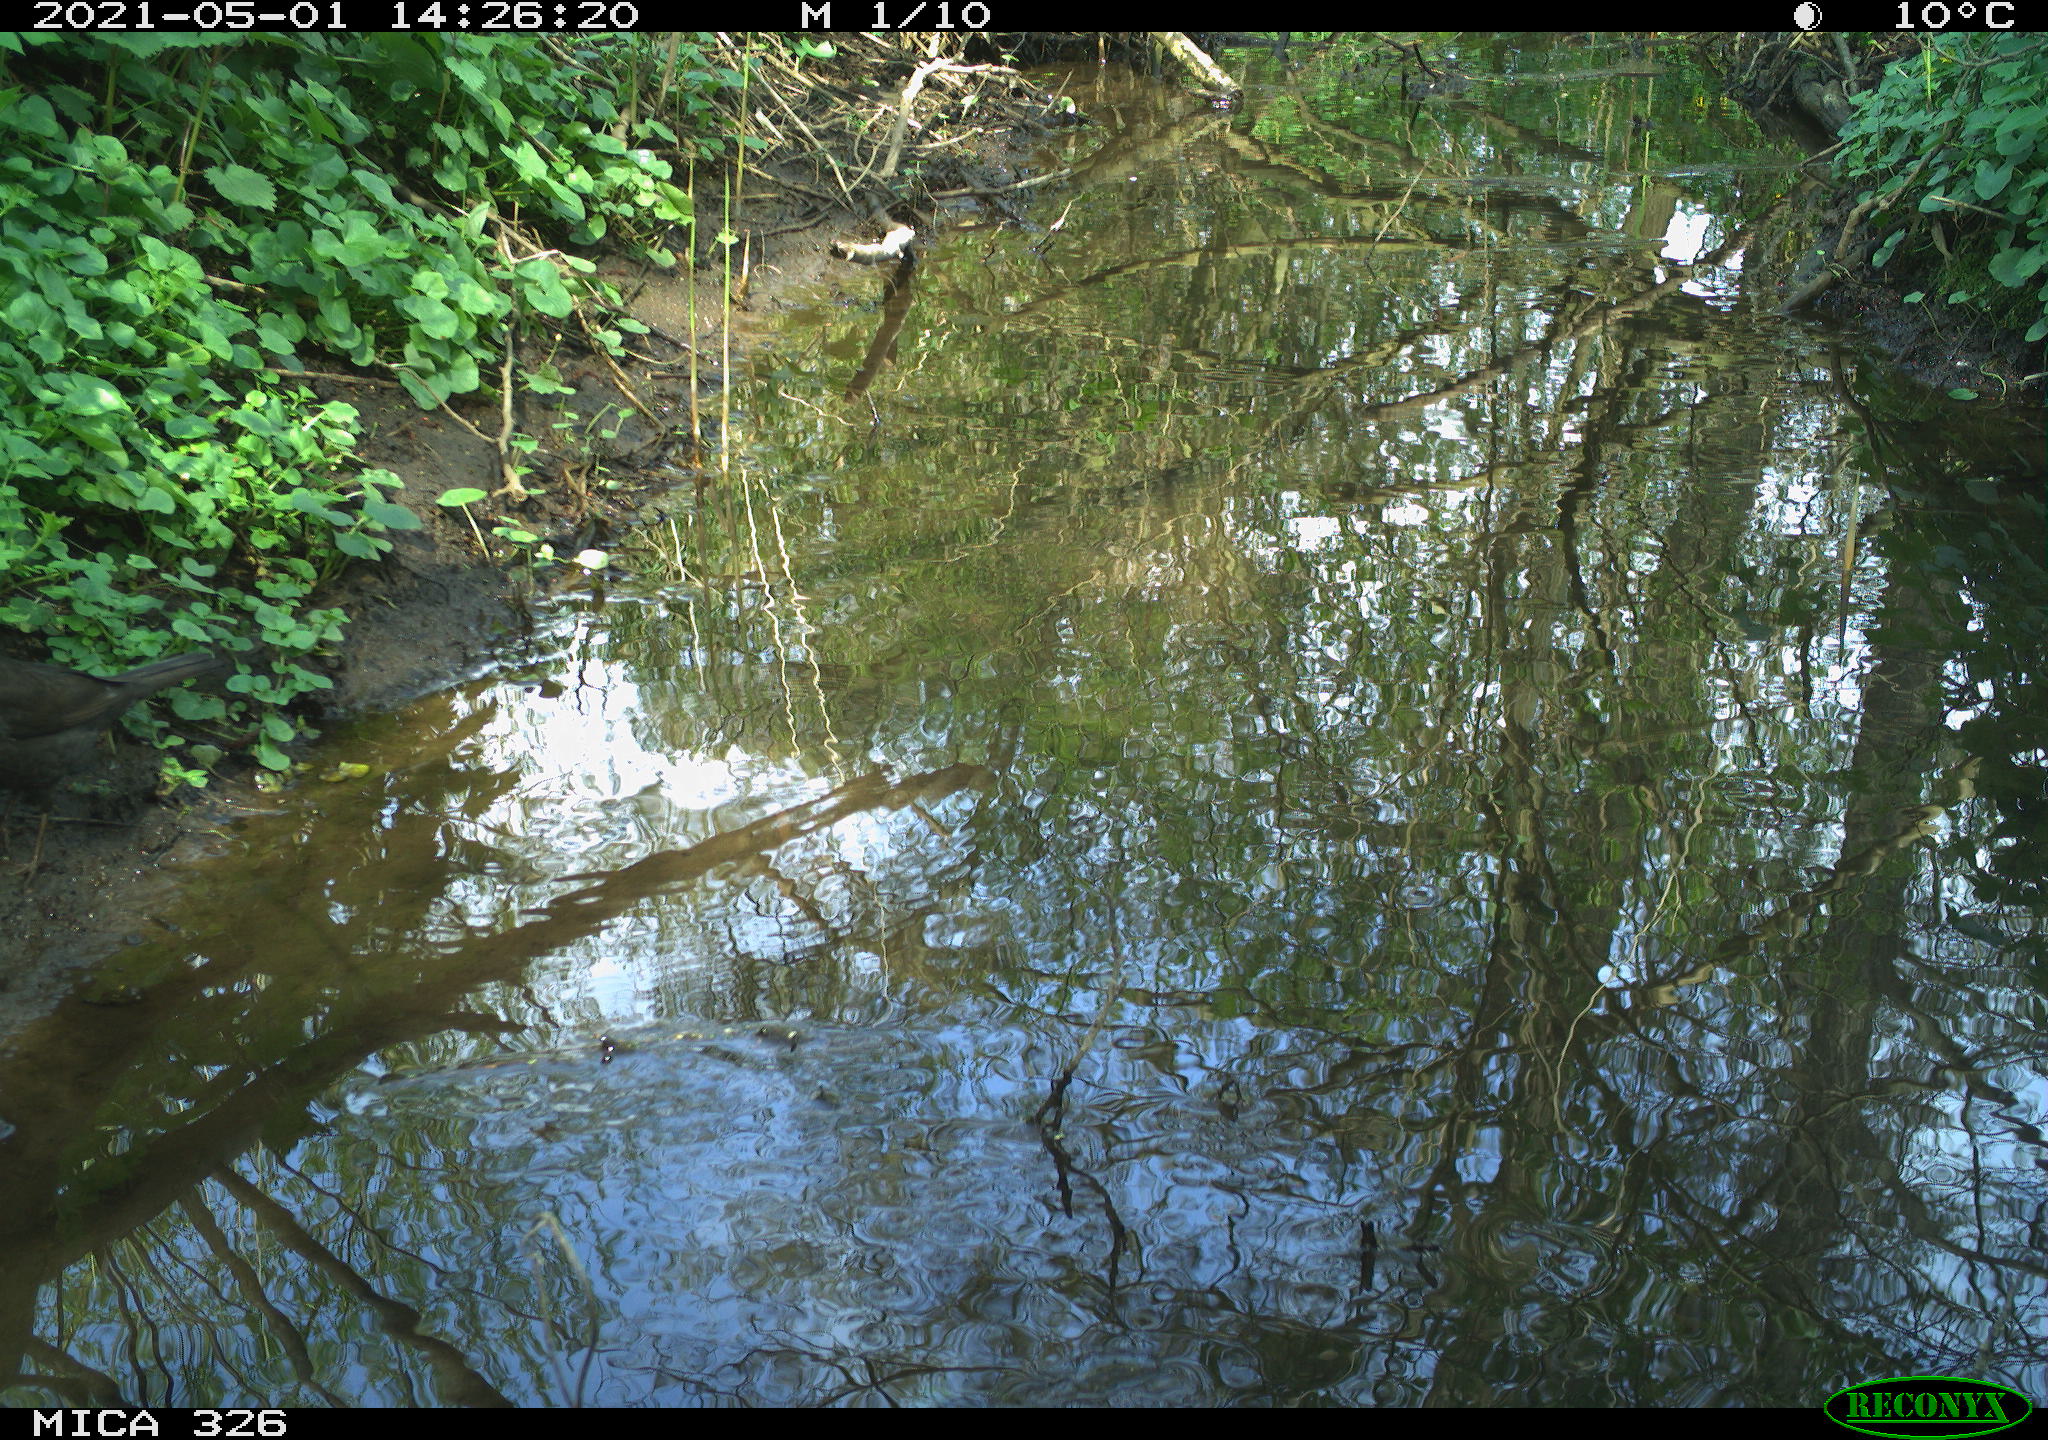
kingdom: Animalia
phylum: Chordata
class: Aves
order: Passeriformes
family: Turdidae
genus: Turdus
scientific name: Turdus merula
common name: Common blackbird
